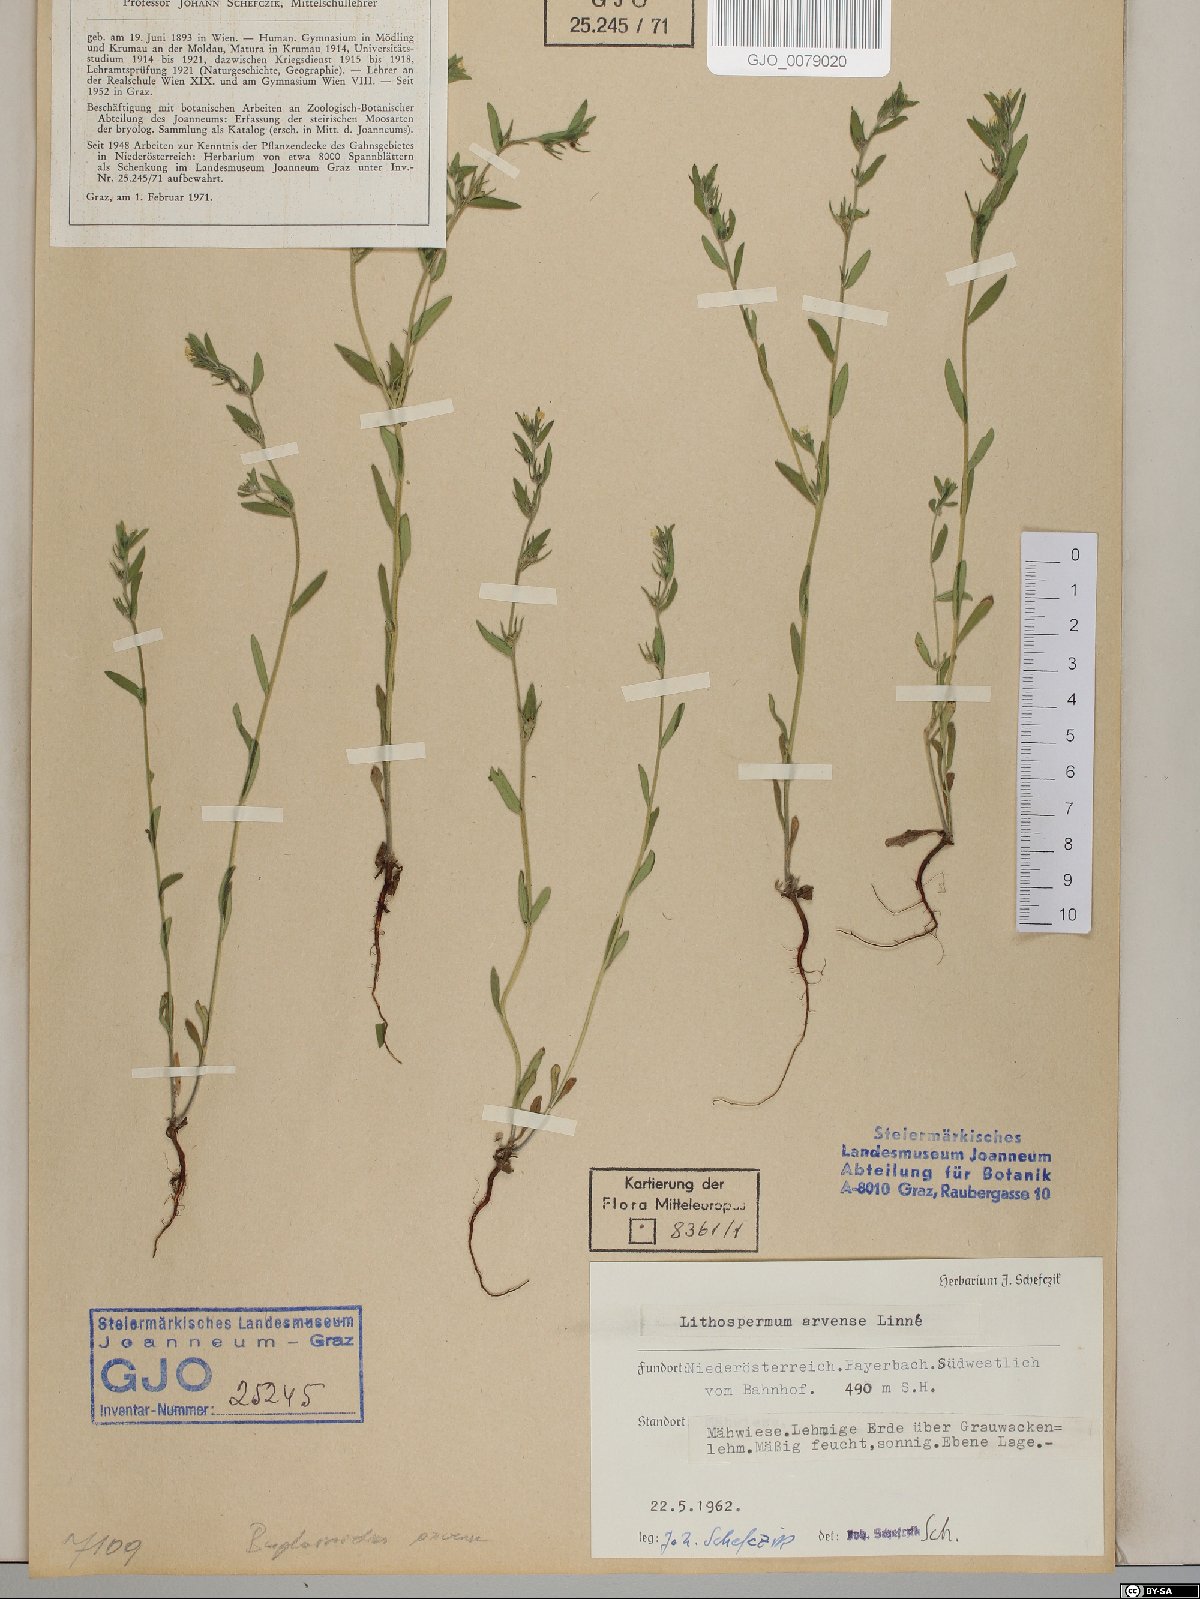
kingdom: Plantae
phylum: Tracheophyta
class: Magnoliopsida
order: Boraginales
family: Boraginaceae
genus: Buglossoides
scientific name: Buglossoides arvensis
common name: Corn gromwell
